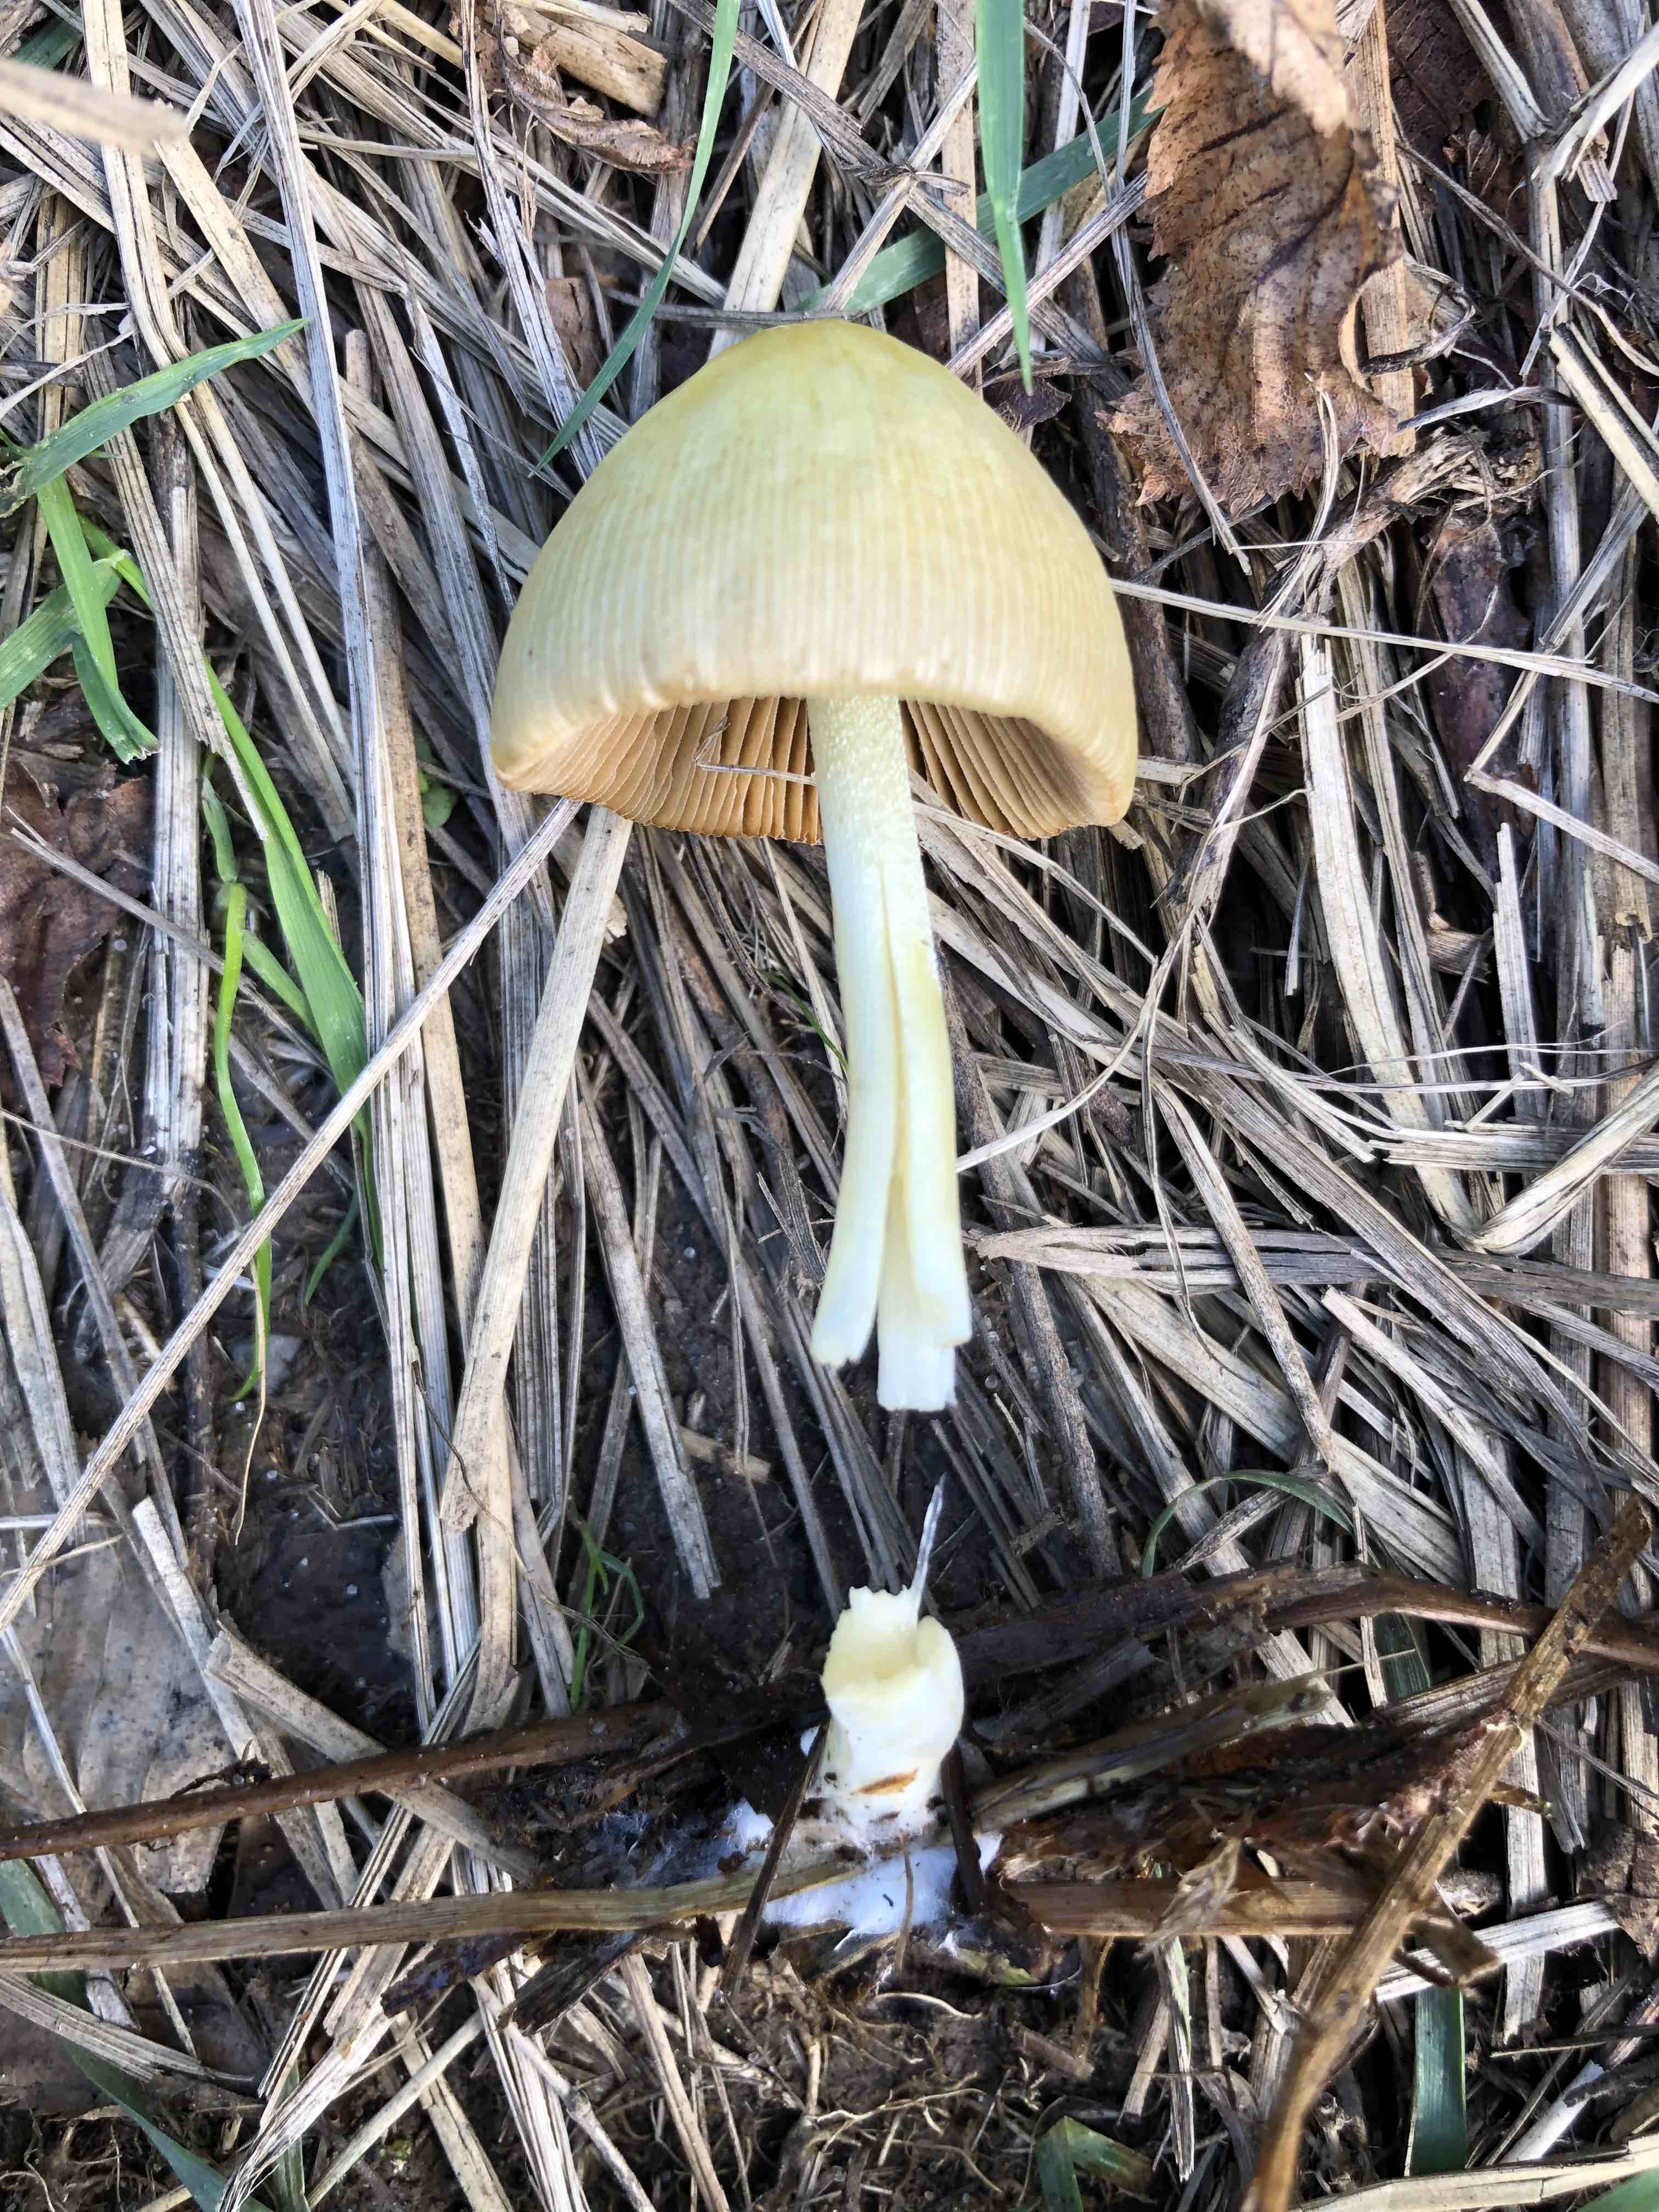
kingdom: Fungi
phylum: Basidiomycota
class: Agaricomycetes
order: Agaricales
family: Bolbitiaceae
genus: Bolbitius
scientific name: Bolbitius titubans
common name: almindelig gulhat
